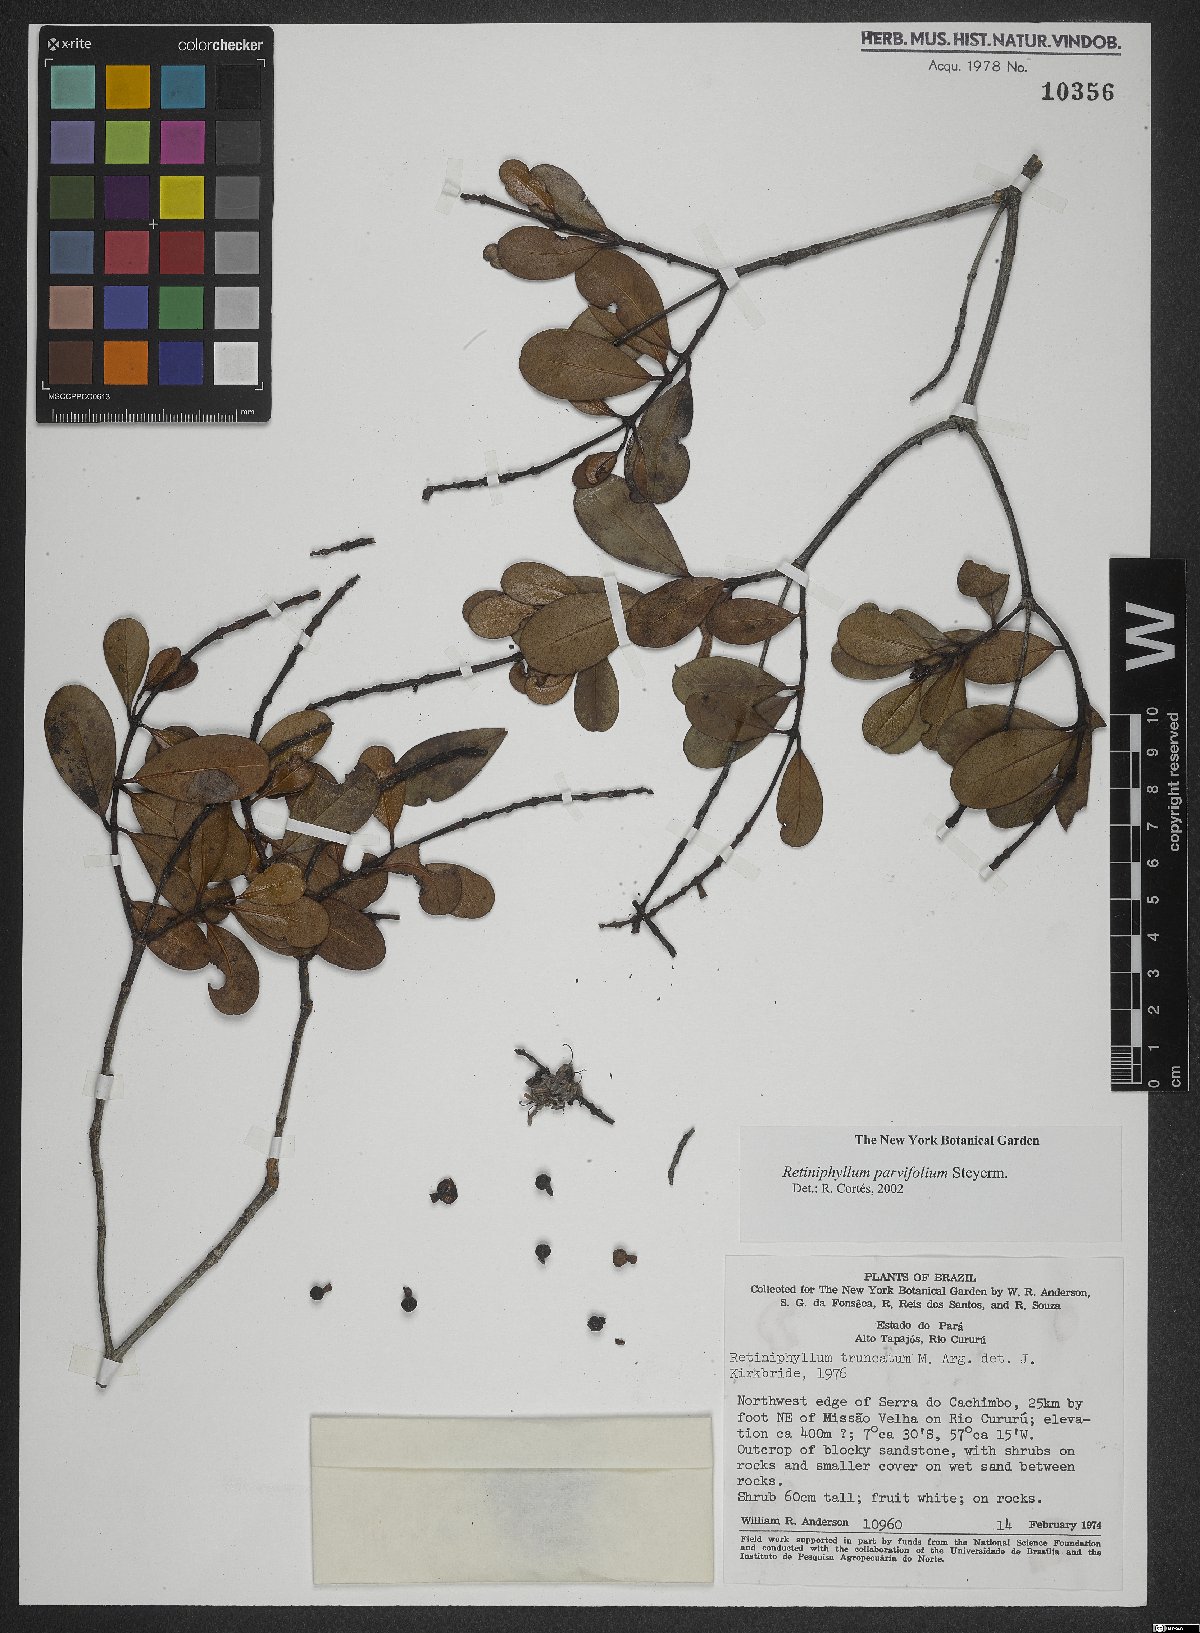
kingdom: Plantae
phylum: Tracheophyta
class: Magnoliopsida
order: Gentianales
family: Rubiaceae
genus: Retiniphyllum
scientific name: Retiniphyllum parvifolium
